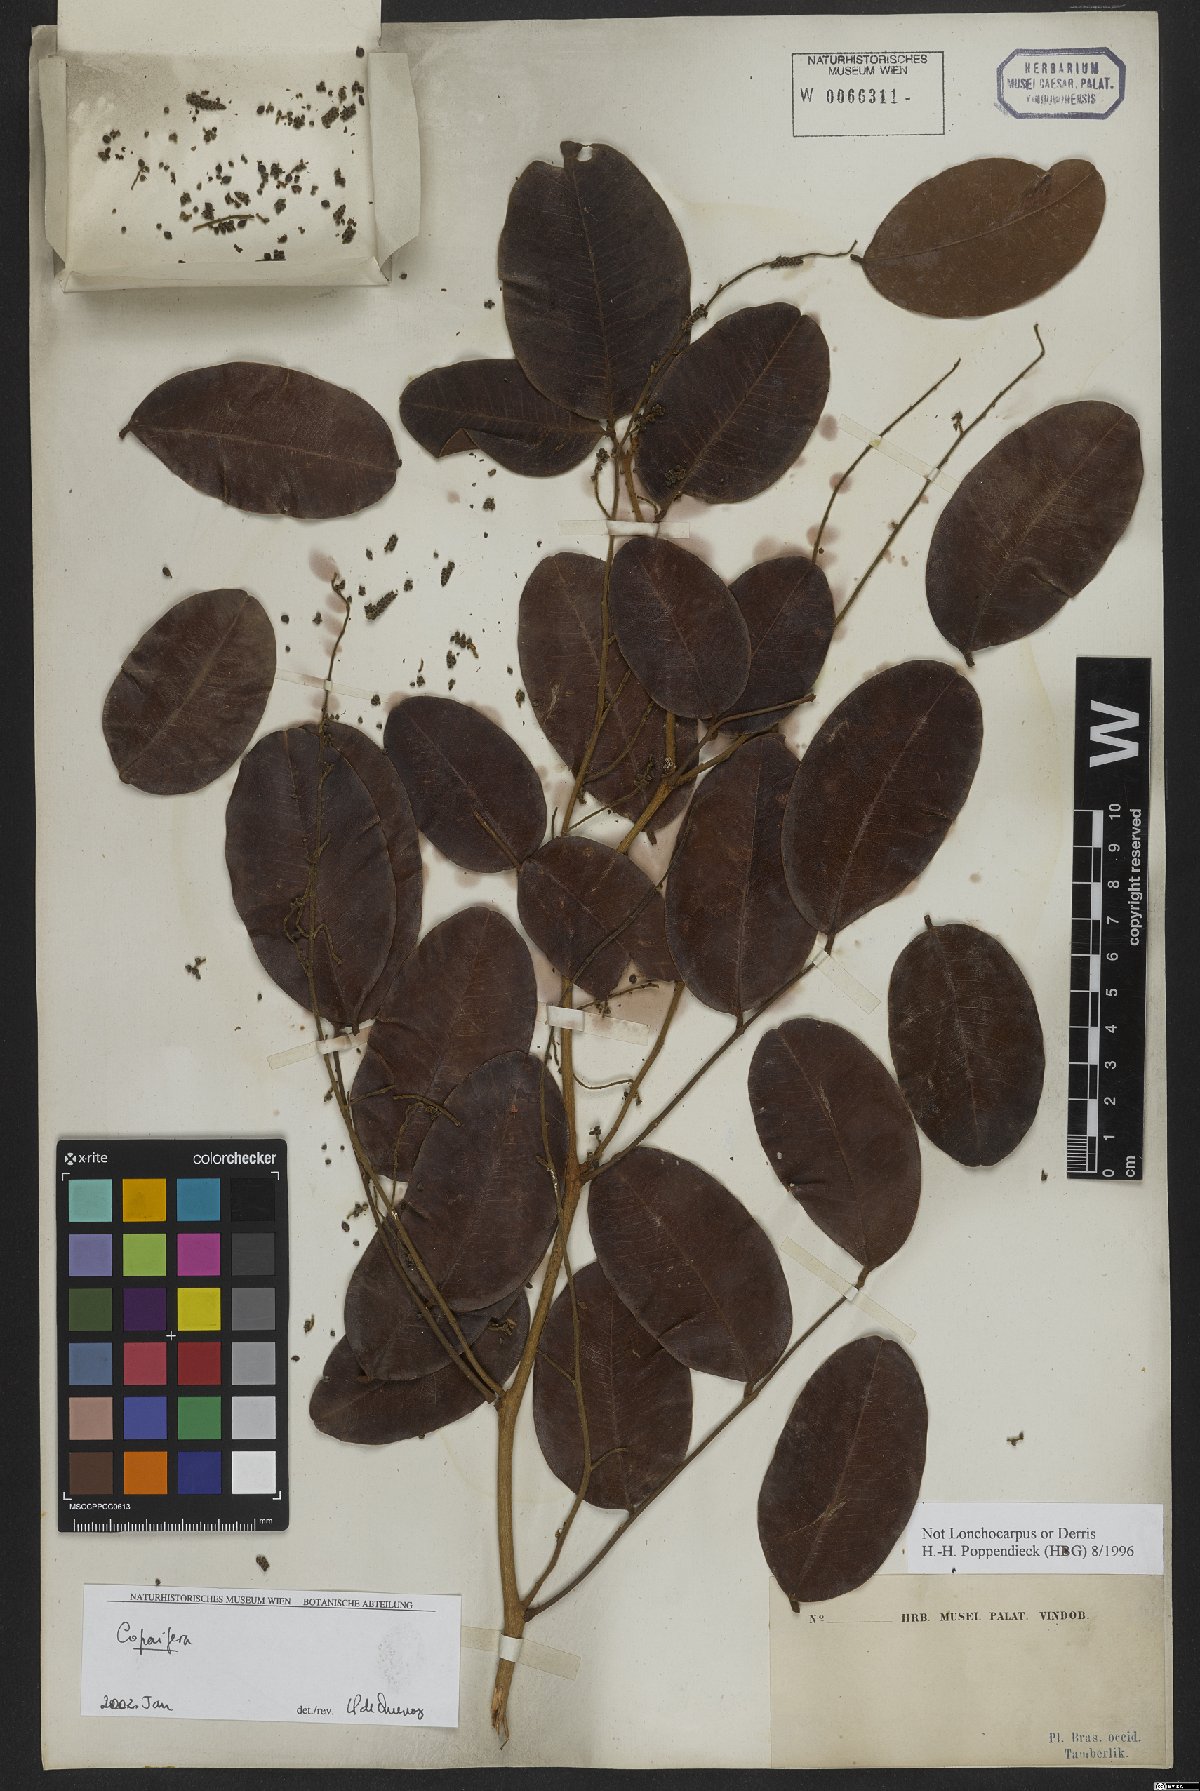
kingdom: Plantae
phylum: Tracheophyta
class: Magnoliopsida
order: Fabales
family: Fabaceae
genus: Copaifera
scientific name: Copaifera
